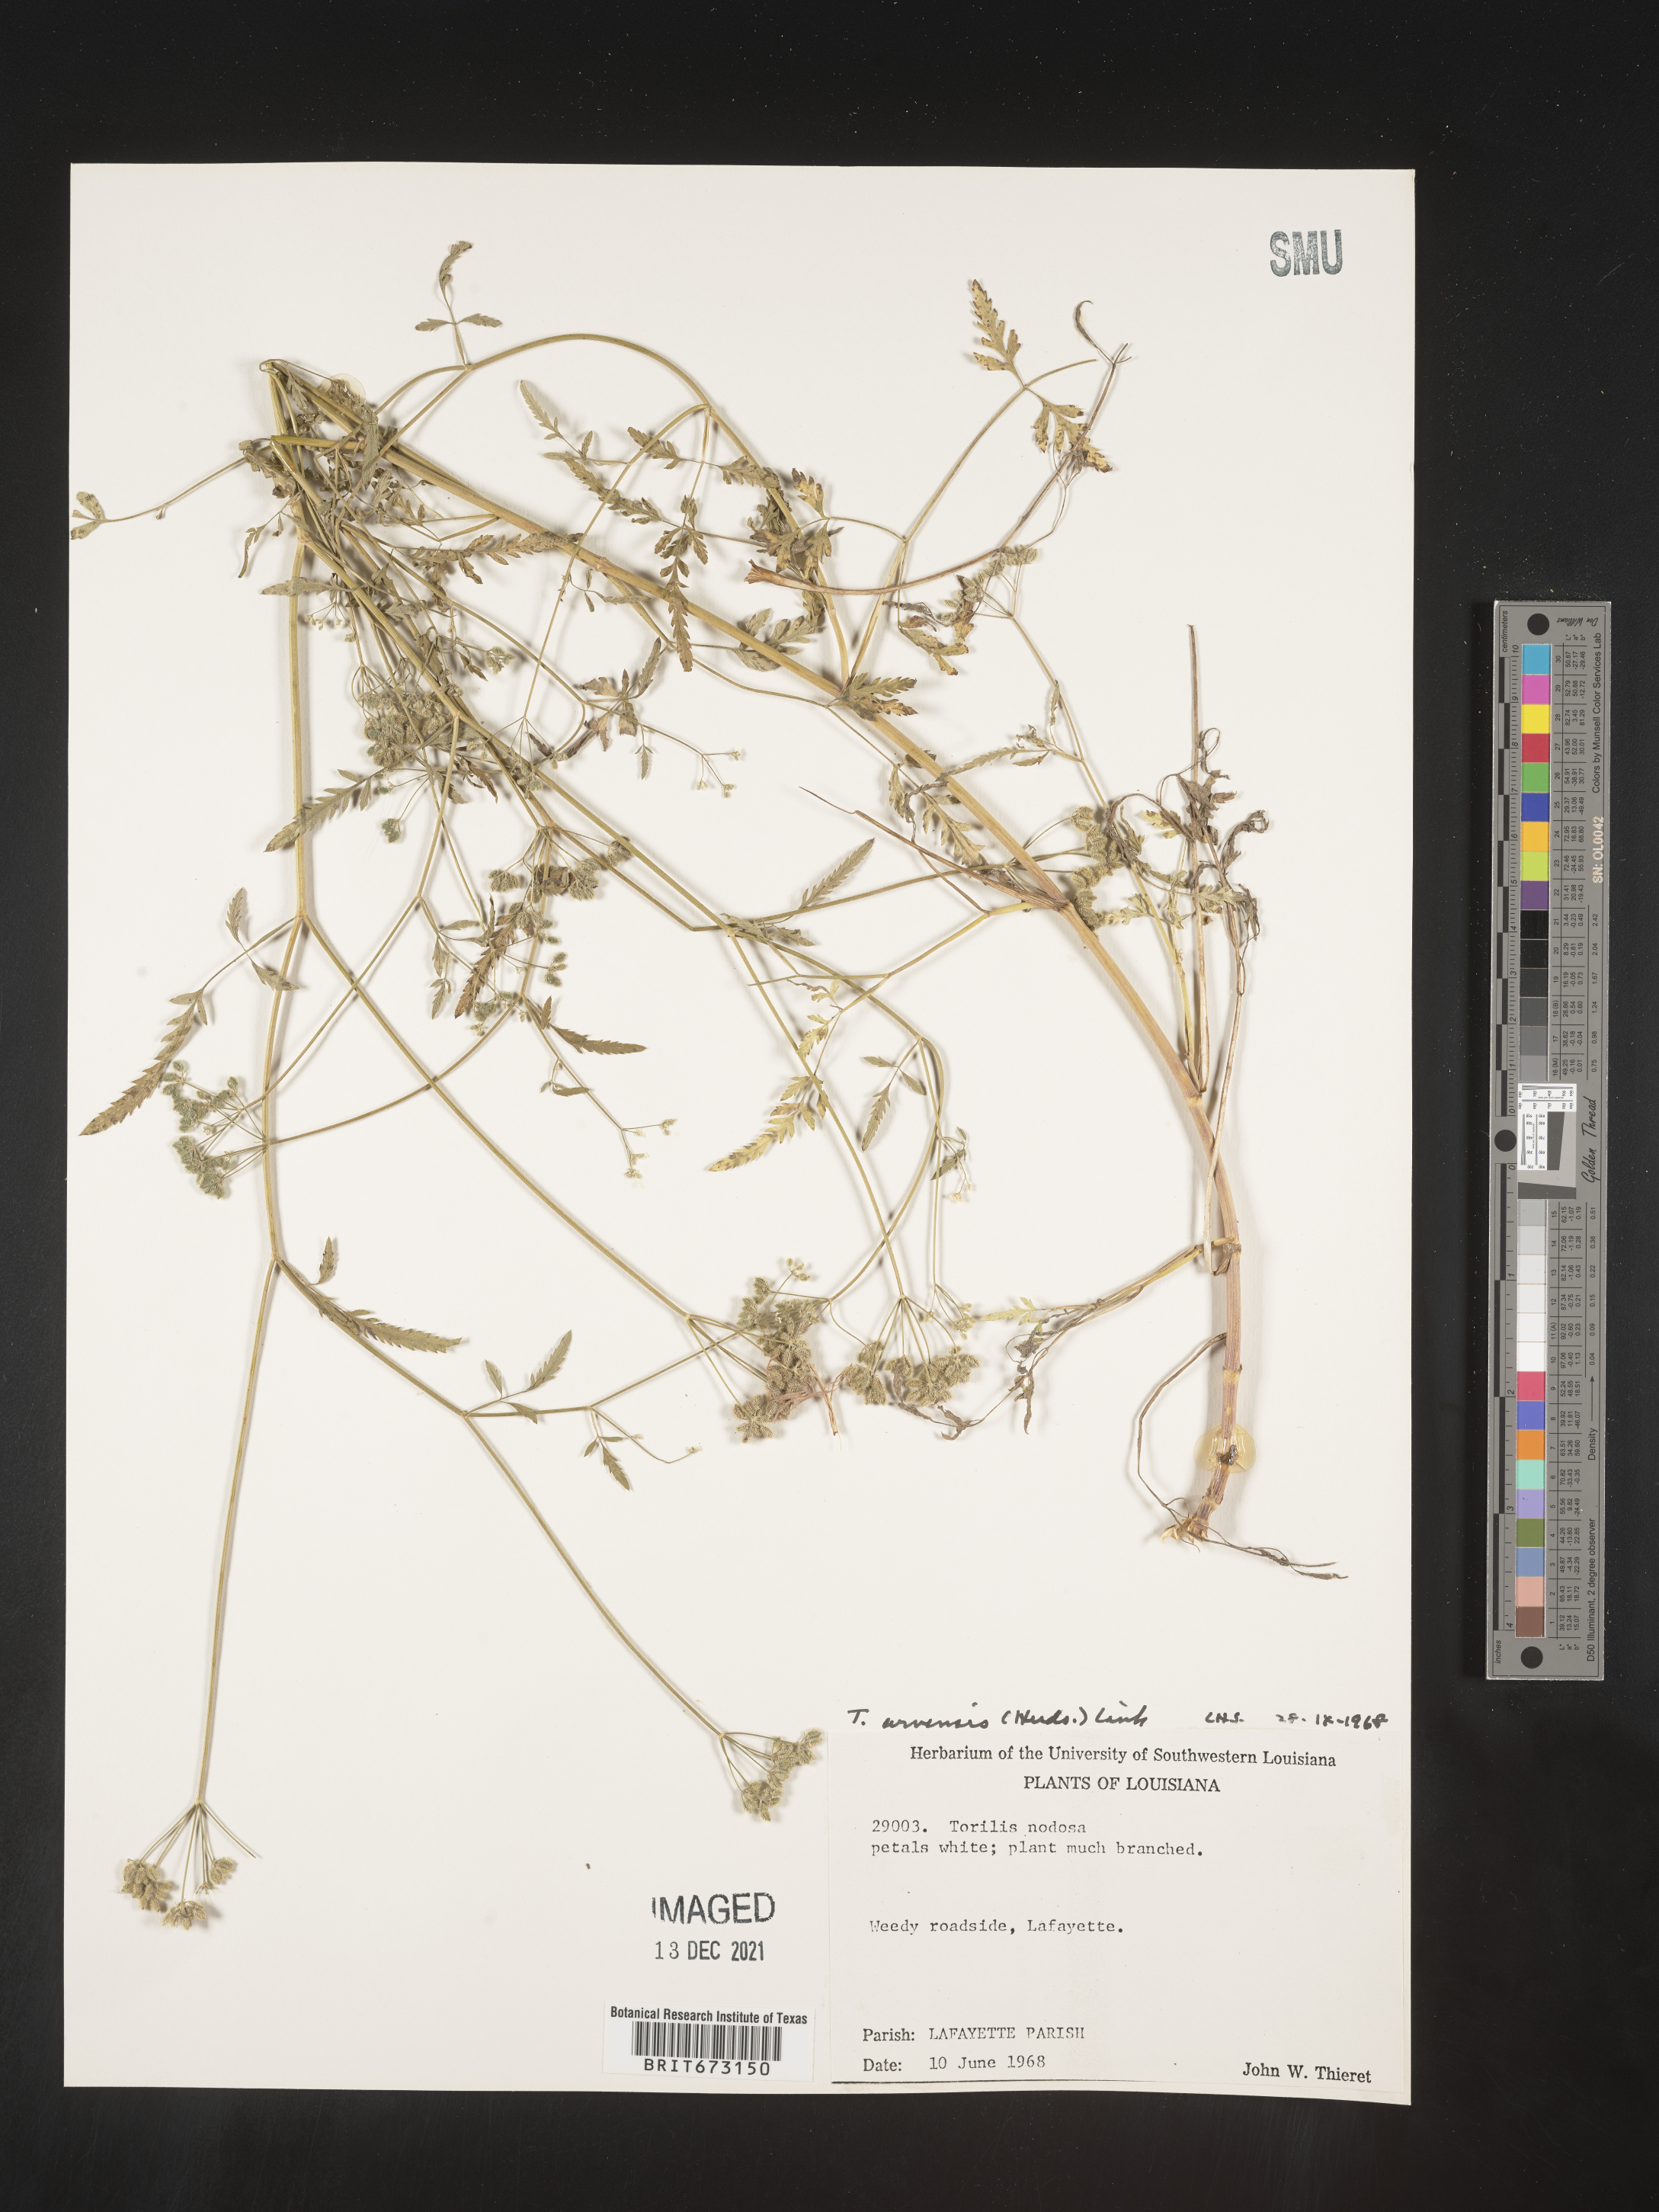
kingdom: Plantae
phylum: Tracheophyta
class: Magnoliopsida
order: Apiales
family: Apiaceae
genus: Torilis
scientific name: Torilis arvensis
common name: Spreading hedge-parsley
